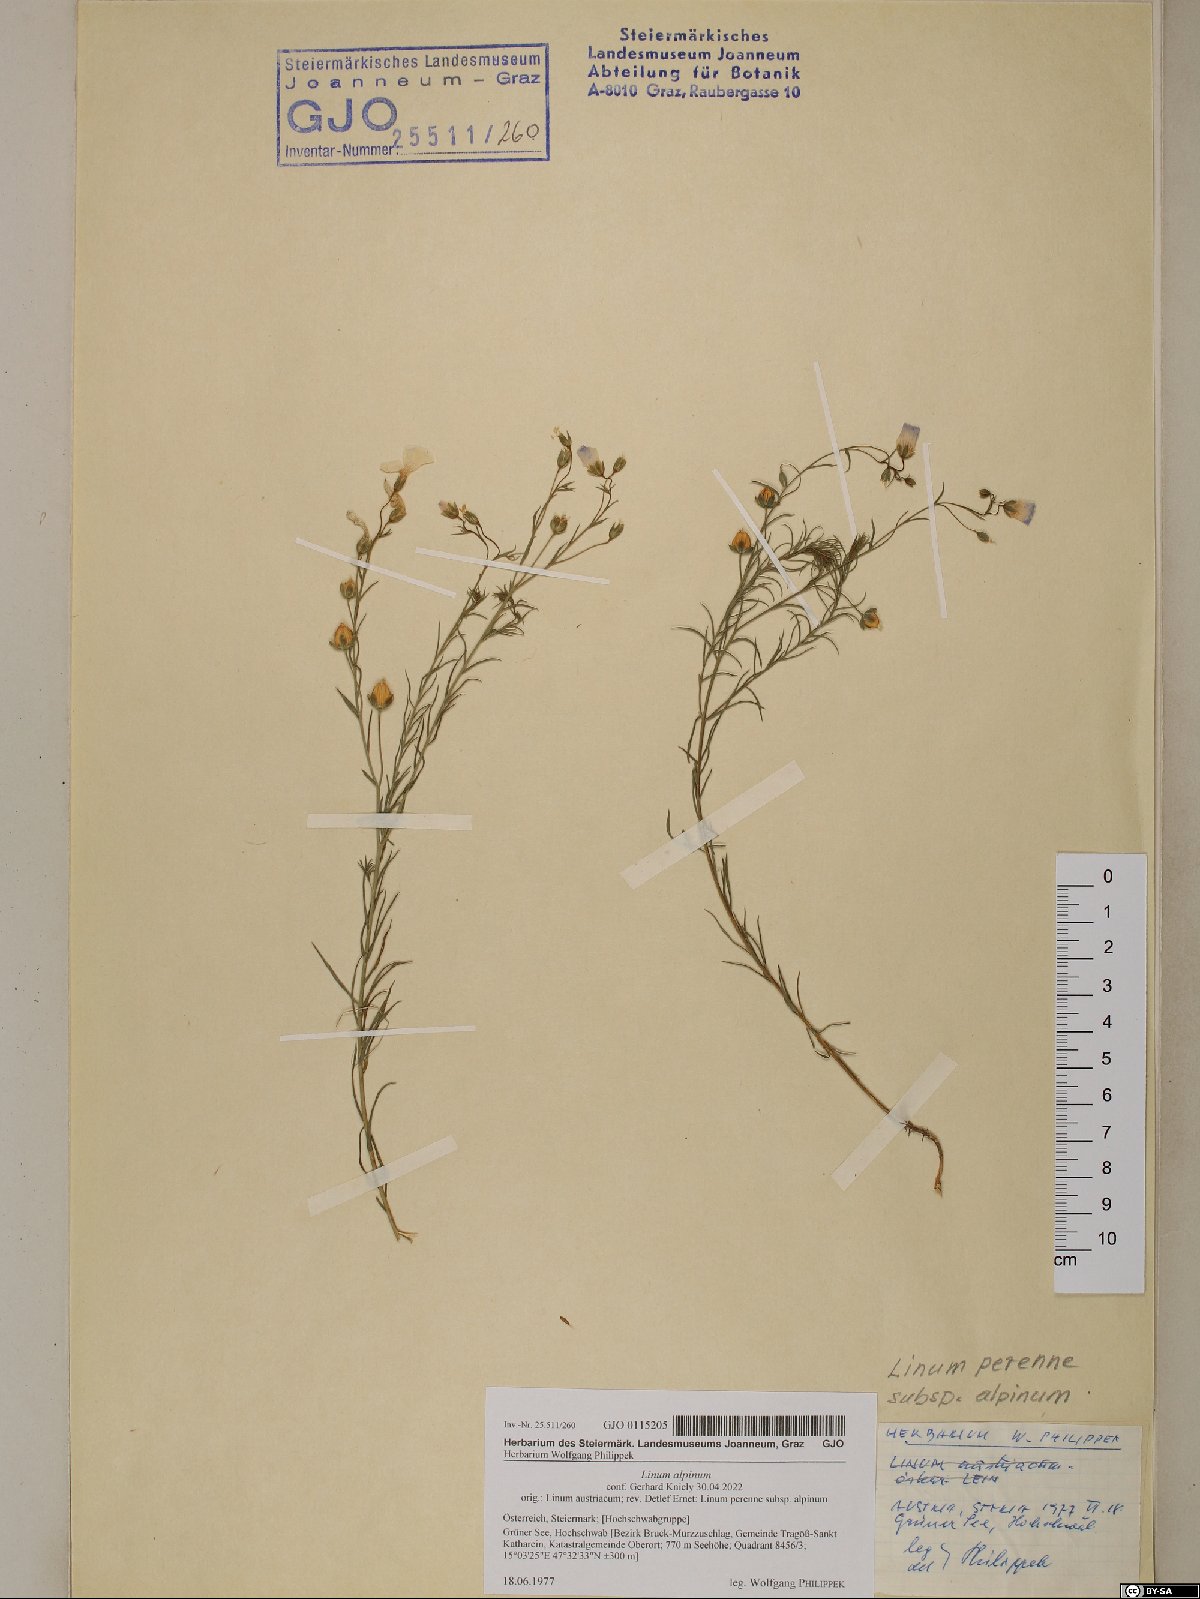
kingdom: Plantae
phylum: Tracheophyta
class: Magnoliopsida
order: Malpighiales
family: Linaceae
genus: Linum
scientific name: Linum alpinum
